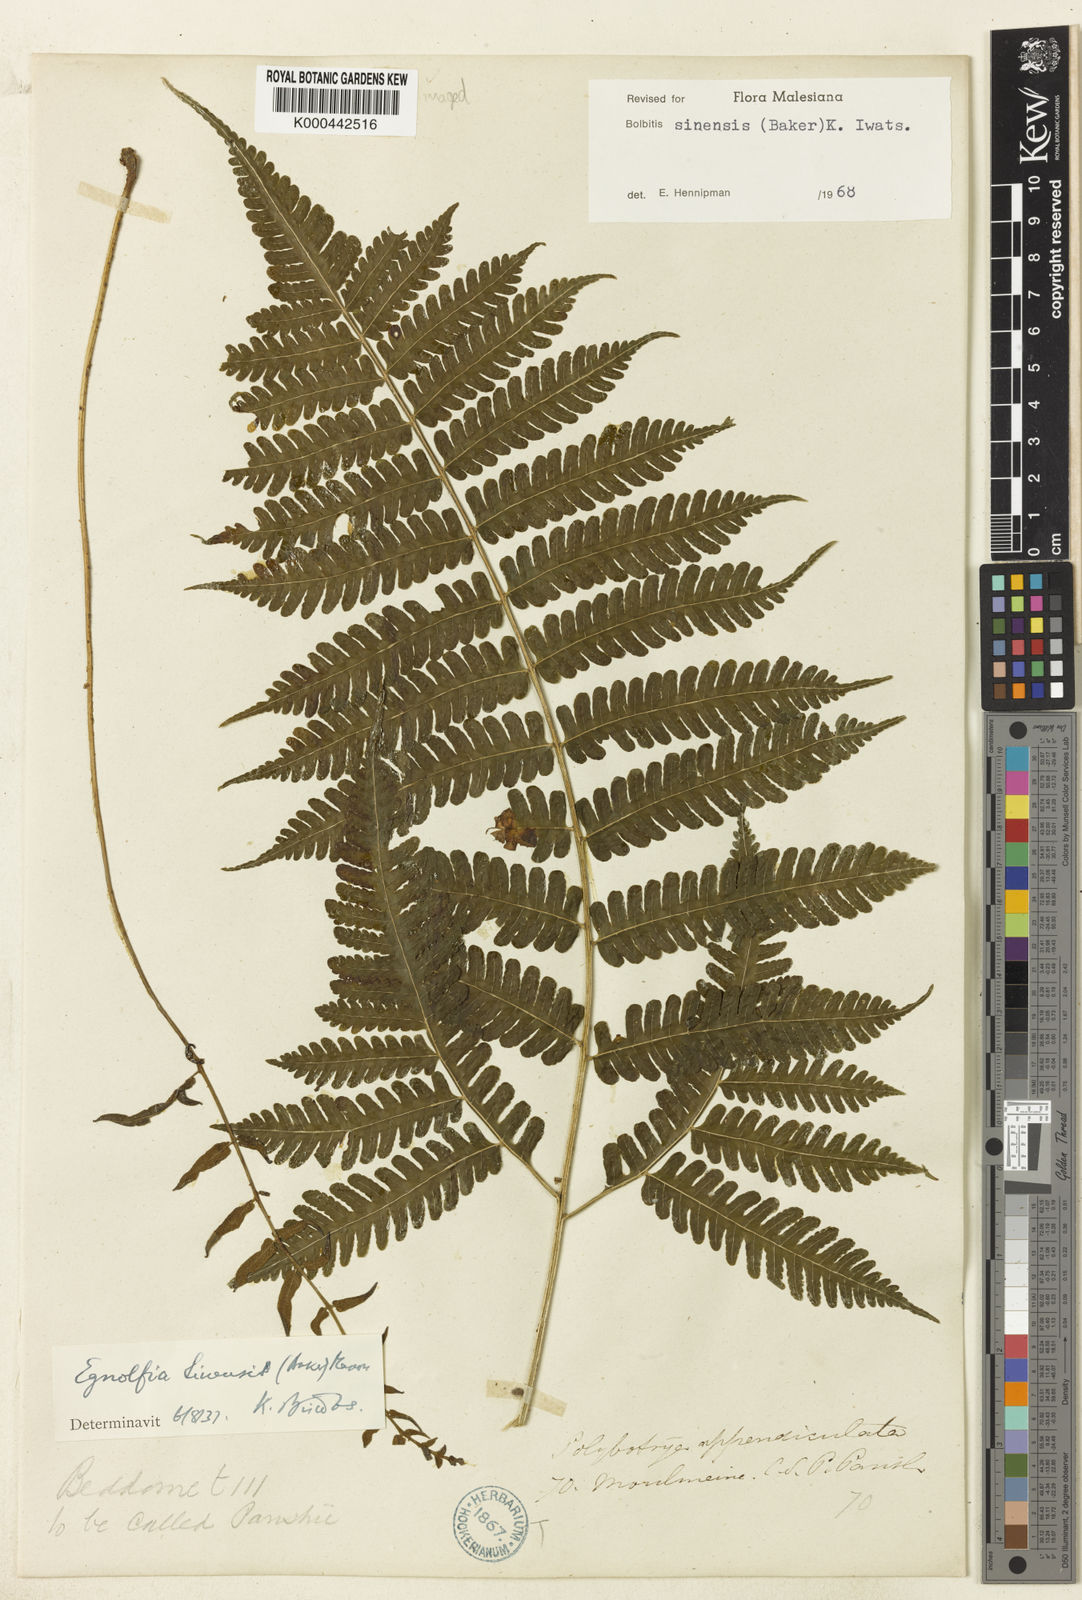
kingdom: Plantae
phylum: Tracheophyta
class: Polypodiopsida
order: Polypodiales
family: Dryopteridaceae
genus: Bolbitis
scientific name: Bolbitis sinensis
